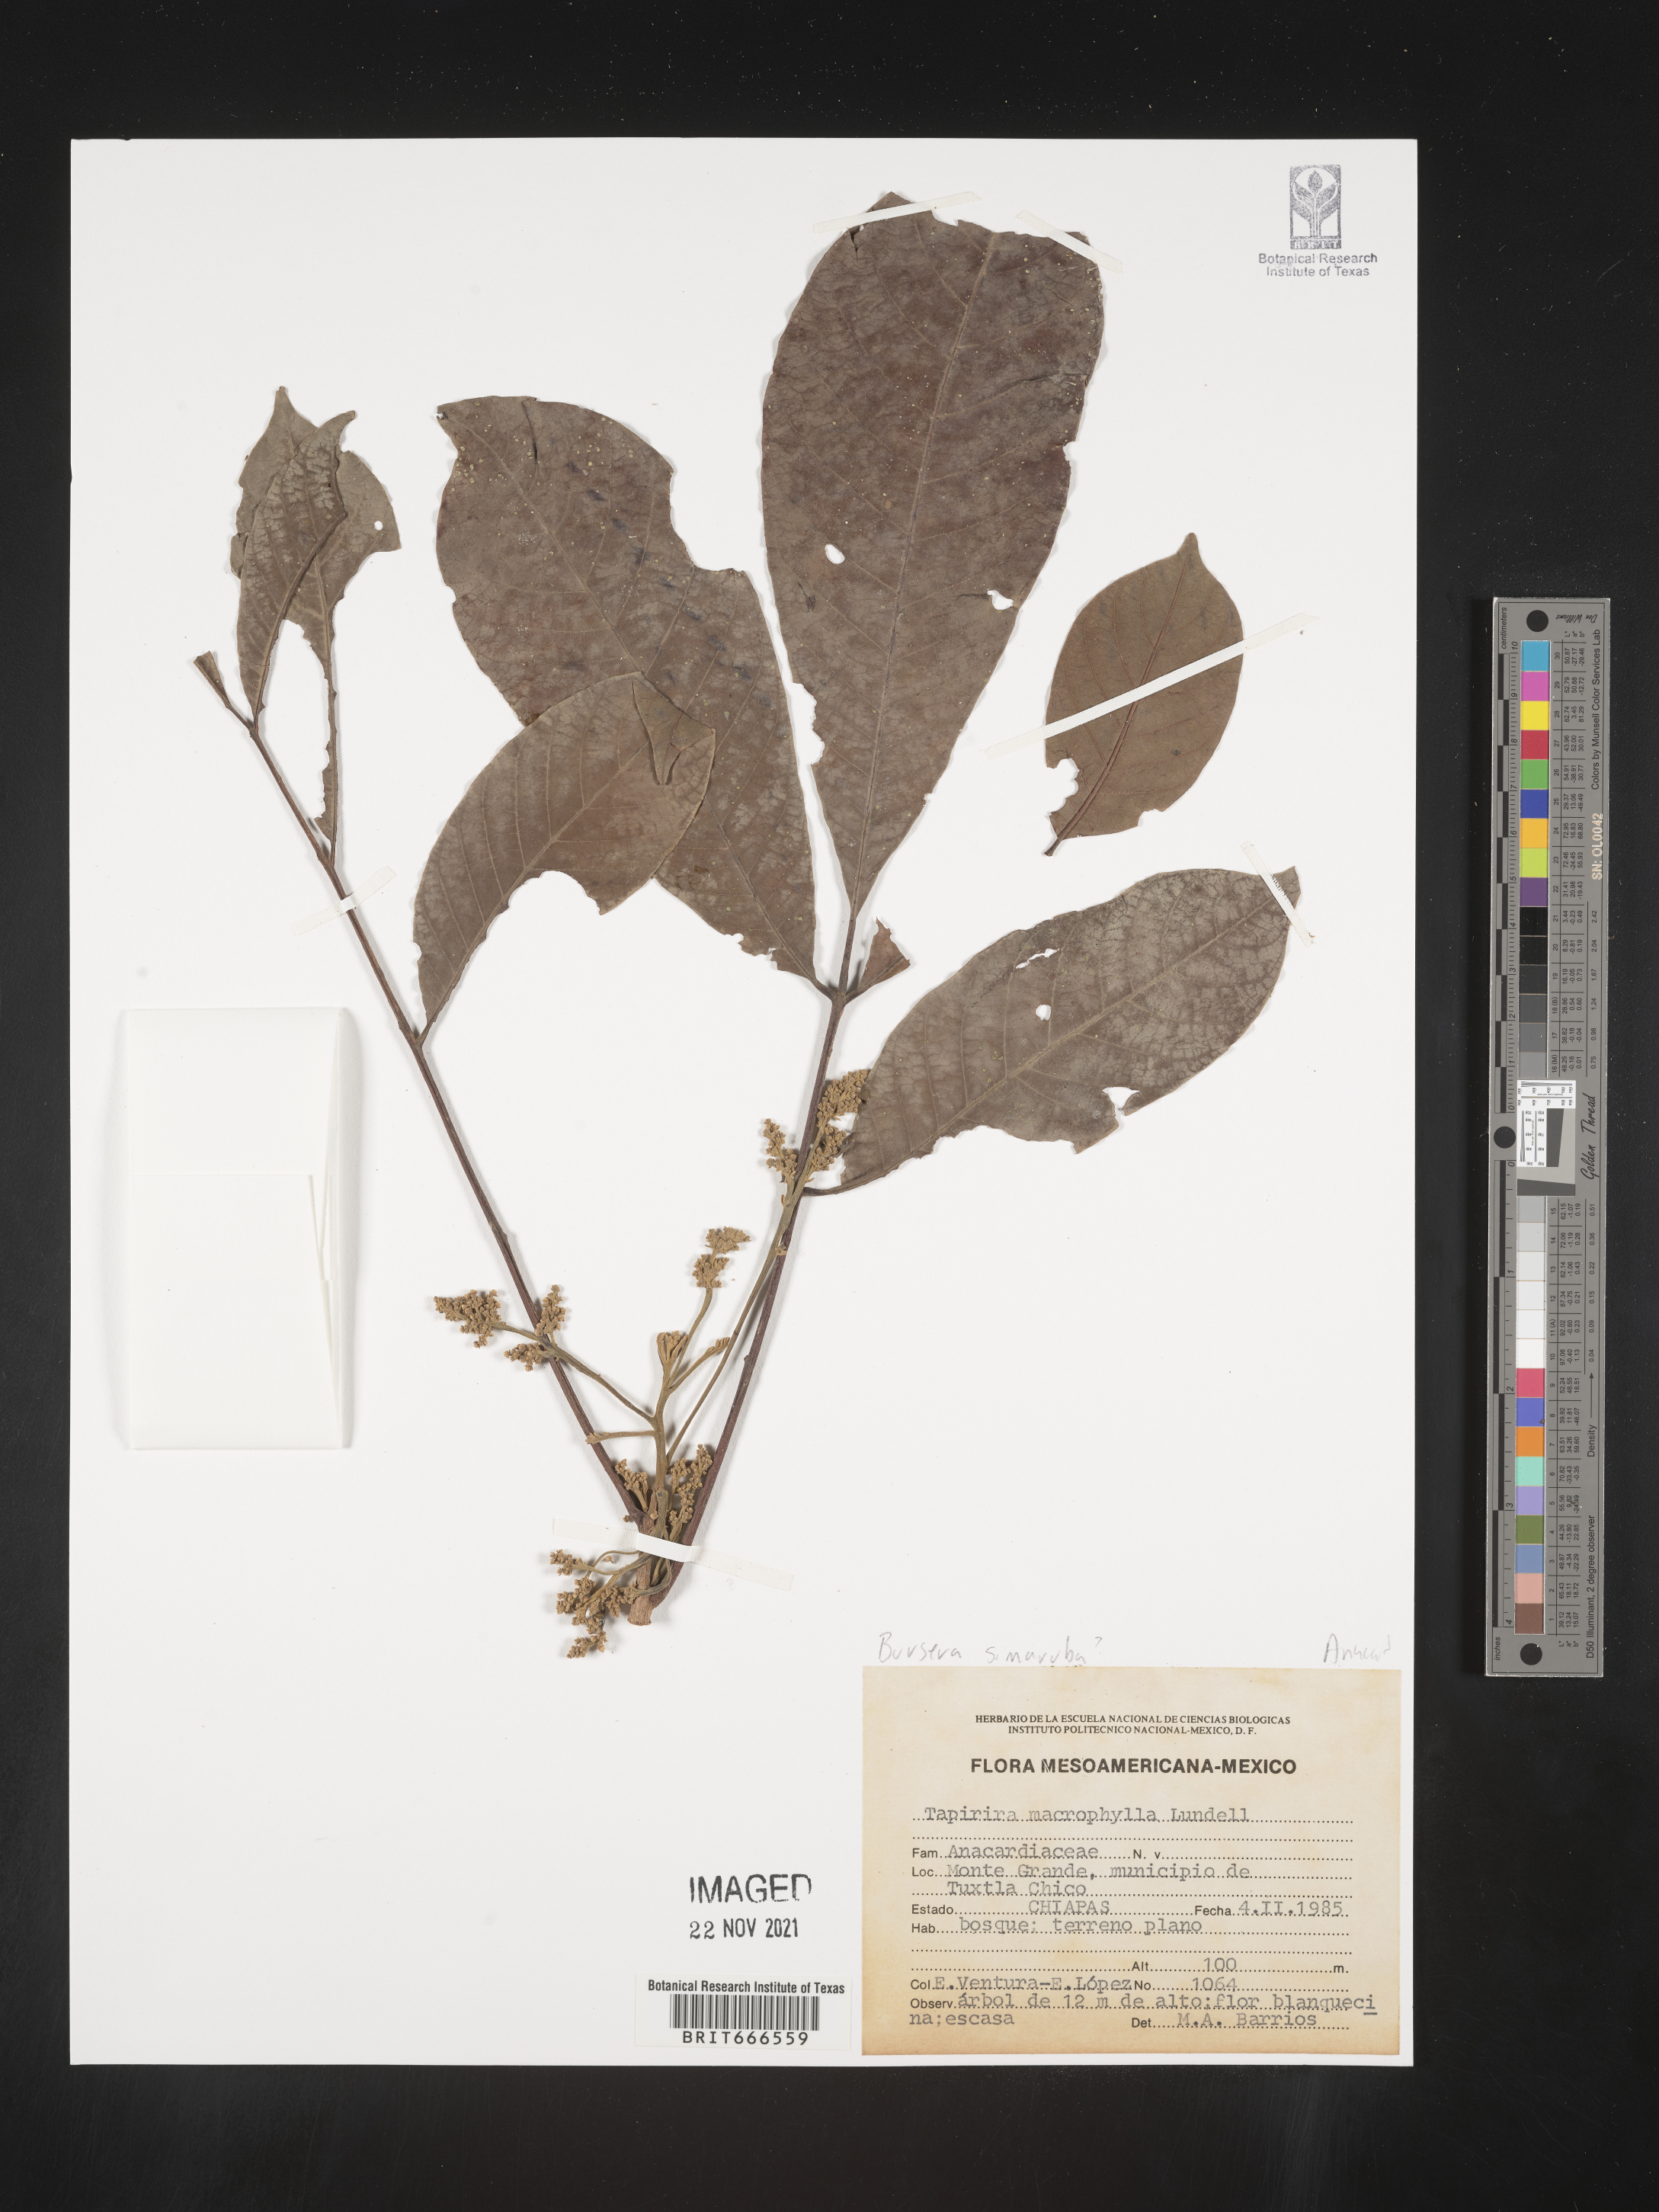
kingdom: Plantae
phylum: Tracheophyta
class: Magnoliopsida
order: Sapindales
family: Anacardiaceae
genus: Tapirira
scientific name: Tapirira
